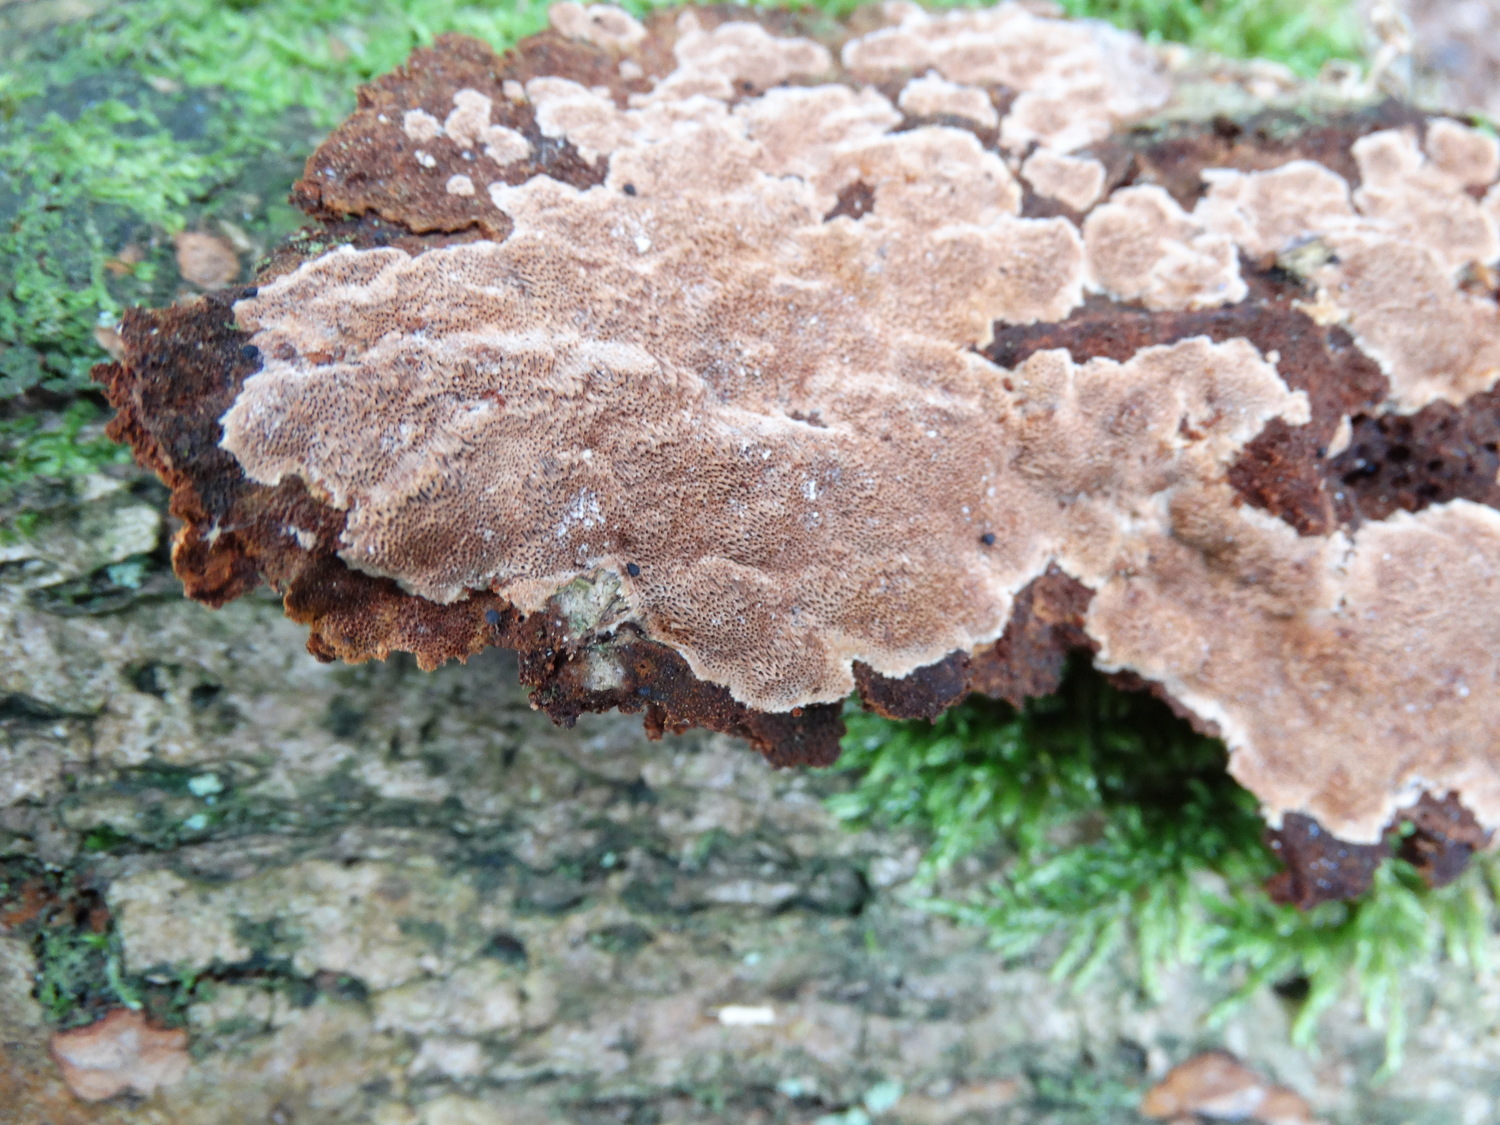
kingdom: Fungi
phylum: Basidiomycota
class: Agaricomycetes
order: Hymenochaetales
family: Hymenochaetaceae
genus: Fuscoporia
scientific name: Fuscoporia ferrea
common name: skorpe-ildporesvamp
